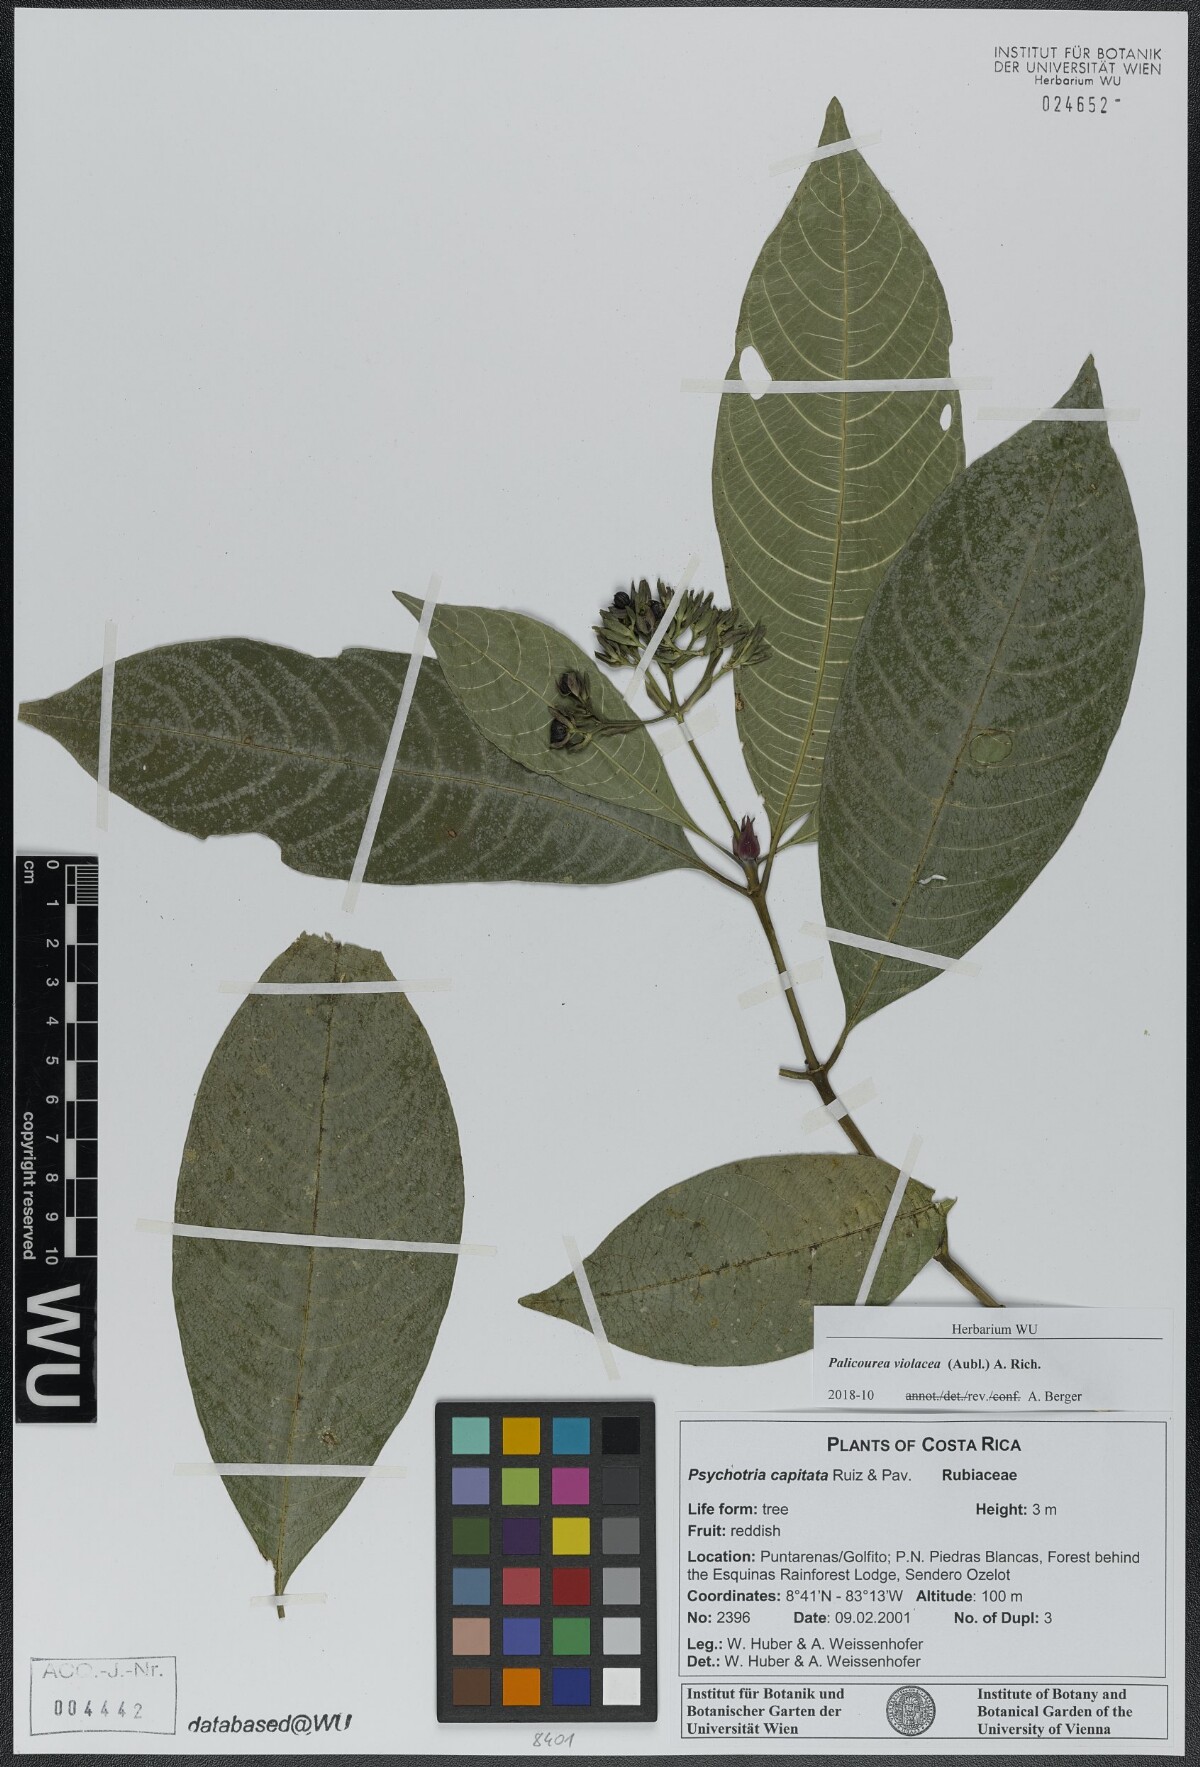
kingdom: Plantae
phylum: Tracheophyta
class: Magnoliopsida
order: Gentianales
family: Rubiaceae
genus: Palicourea
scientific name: Palicourea violacea
